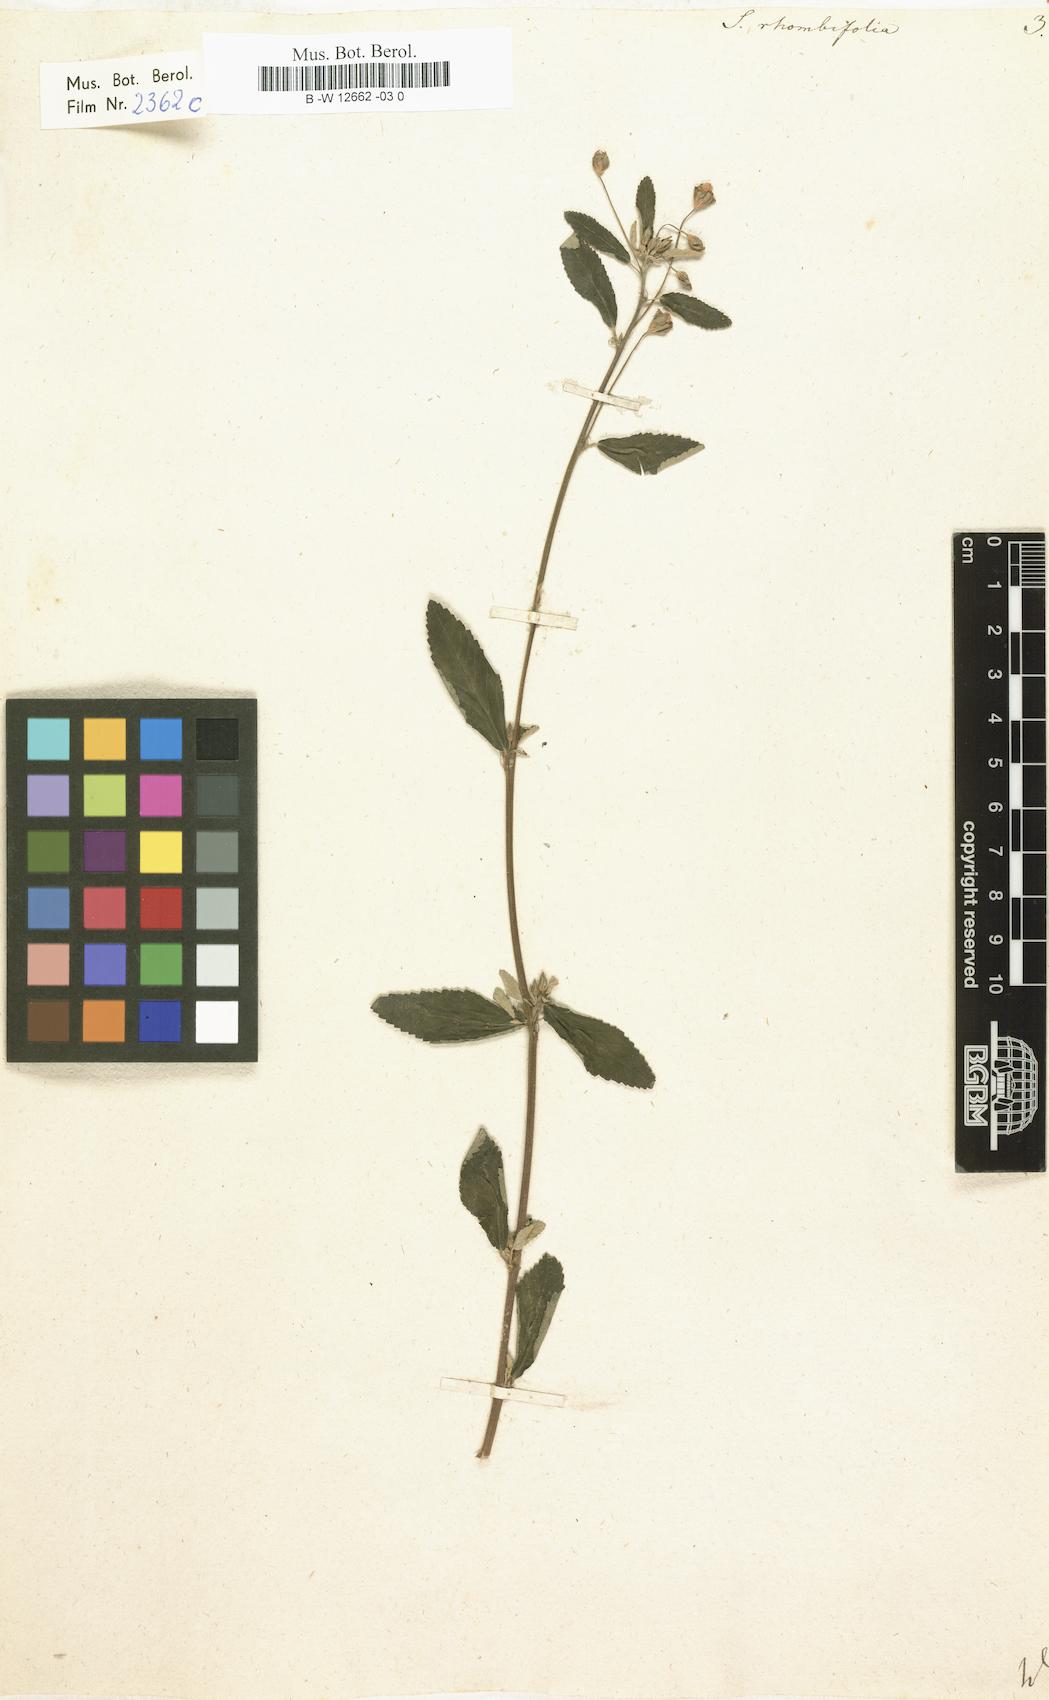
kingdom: Plantae
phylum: Tracheophyta
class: Magnoliopsida
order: Malvales
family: Malvaceae
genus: Sida
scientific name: Sida rhombifolia
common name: Queensland-hemp
